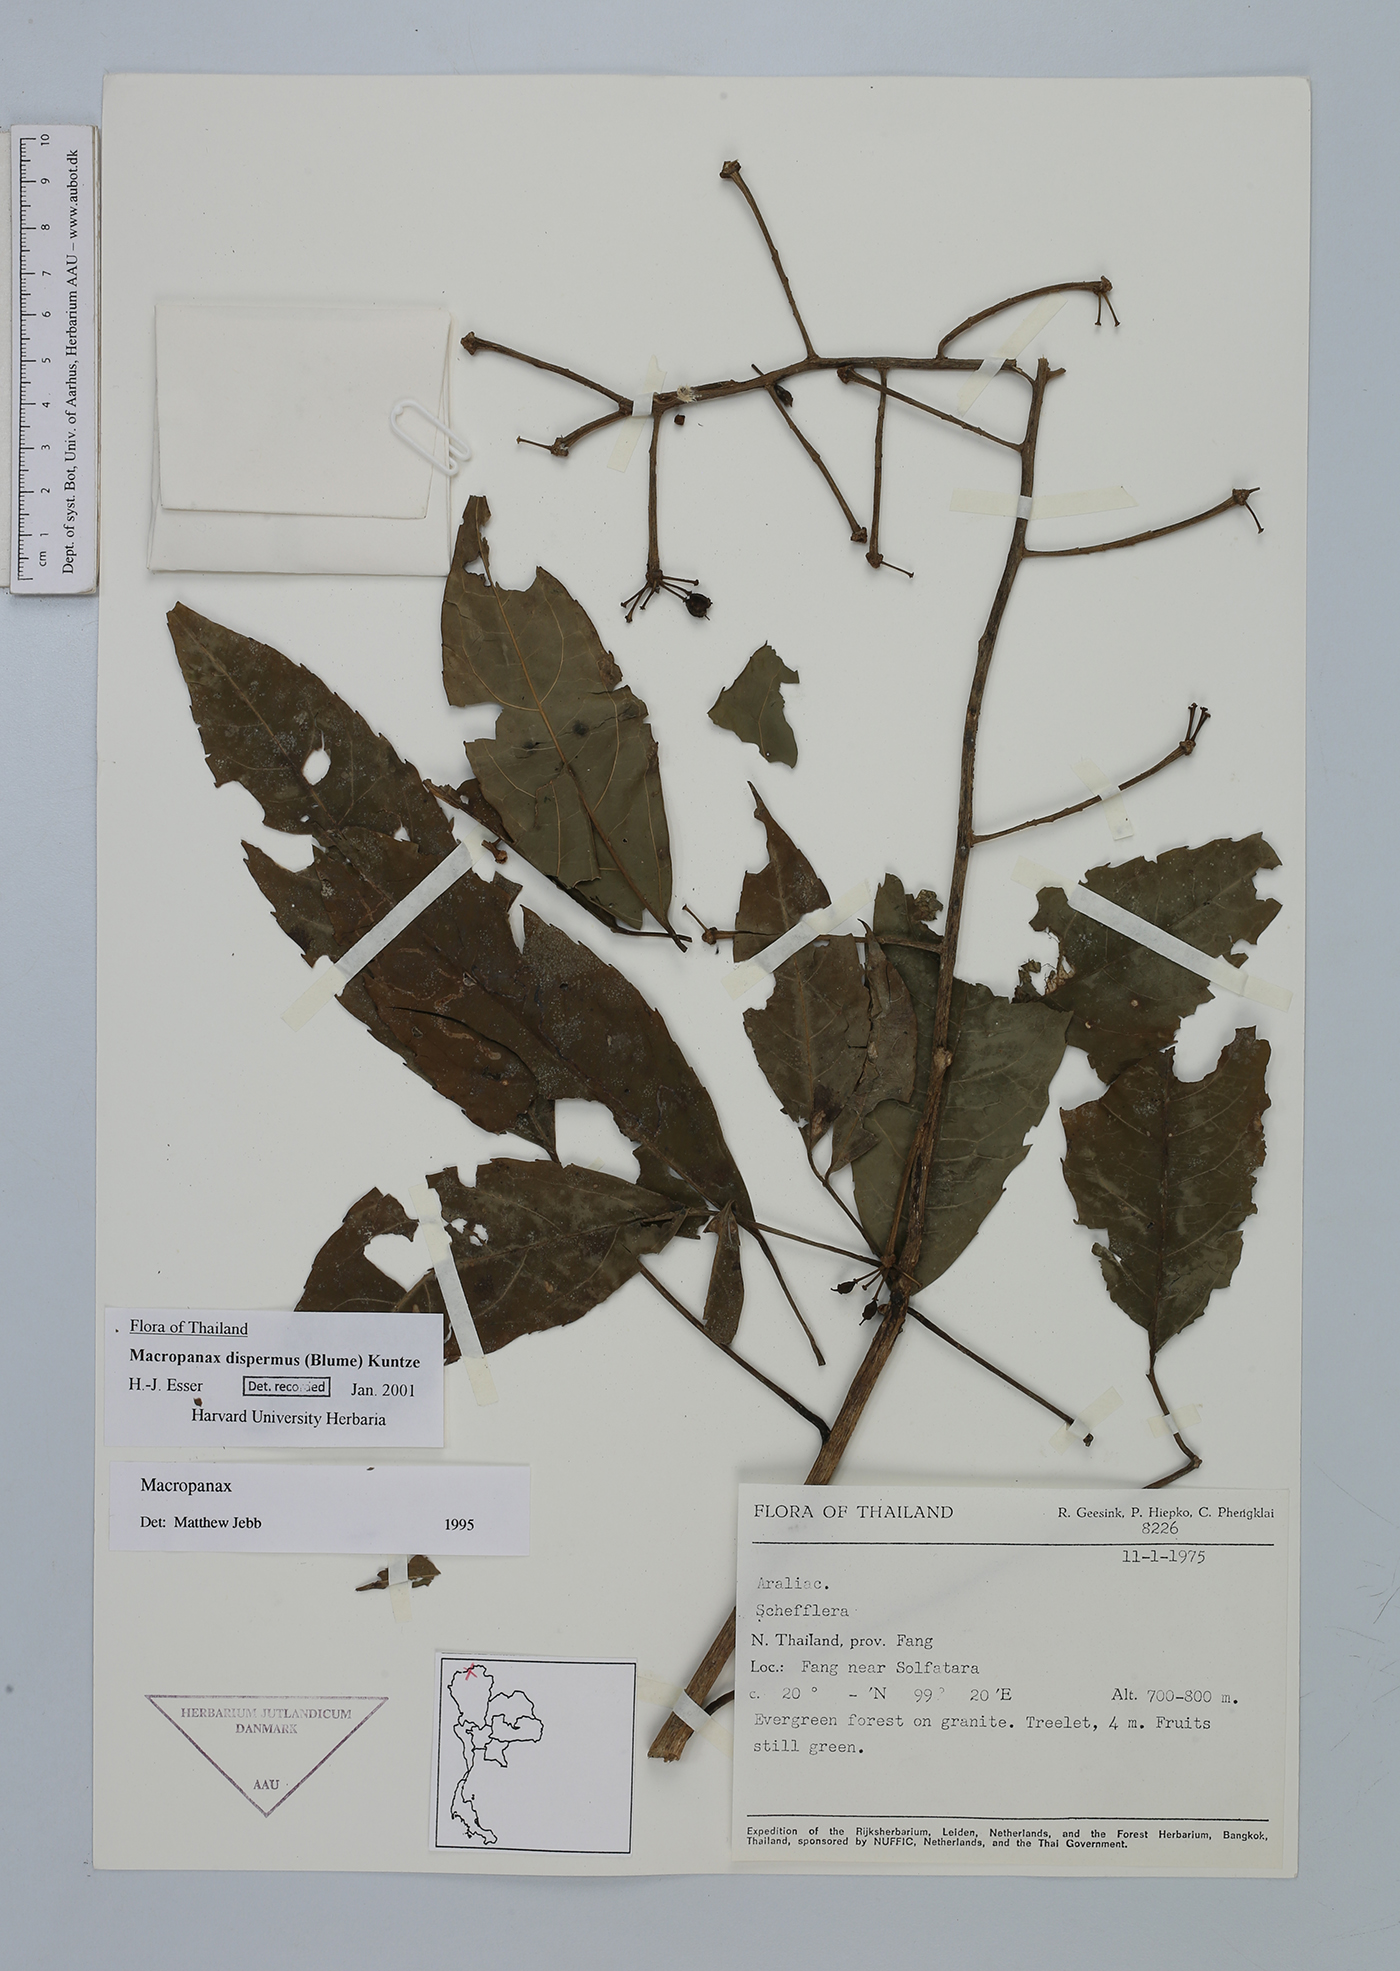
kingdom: Plantae
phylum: Tracheophyta
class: Magnoliopsida
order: Apiales
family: Araliaceae
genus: Macropanax
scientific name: Macropanax dispermus
